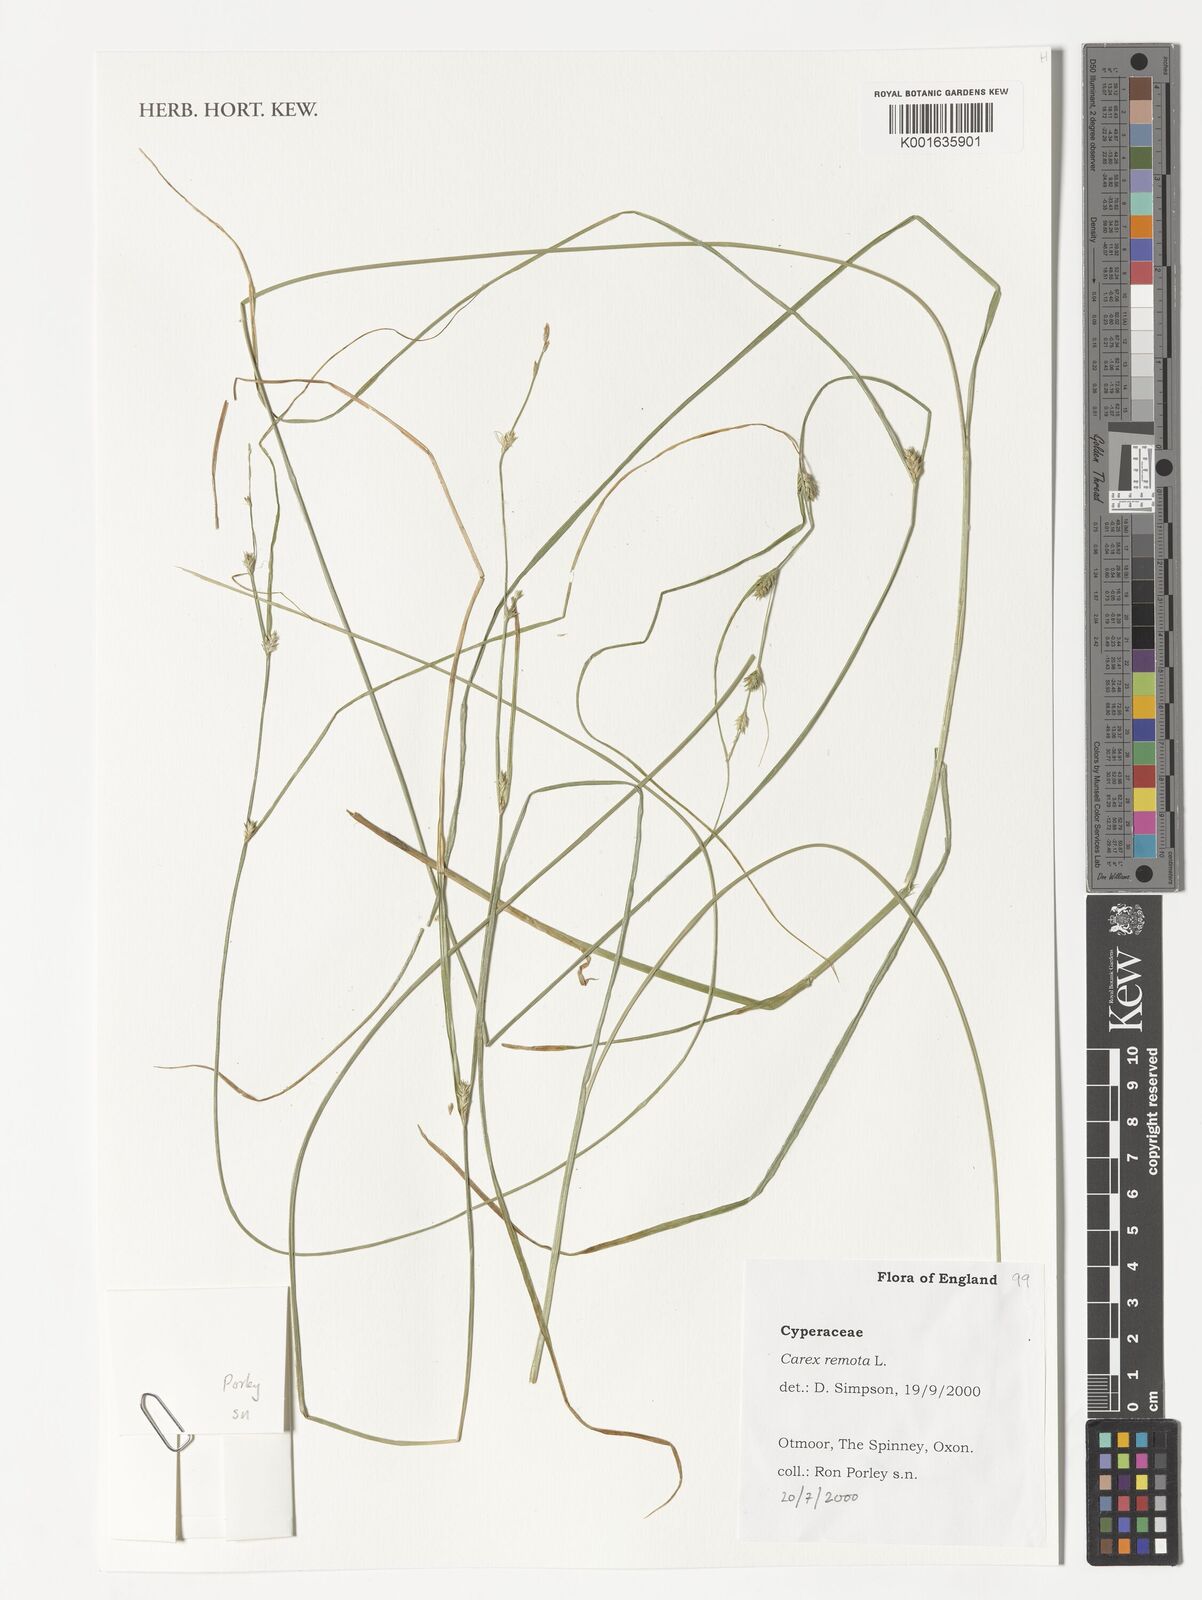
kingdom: Plantae
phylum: Tracheophyta
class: Liliopsida
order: Poales
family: Cyperaceae
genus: Carex
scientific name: Carex remota
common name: Remote sedge
